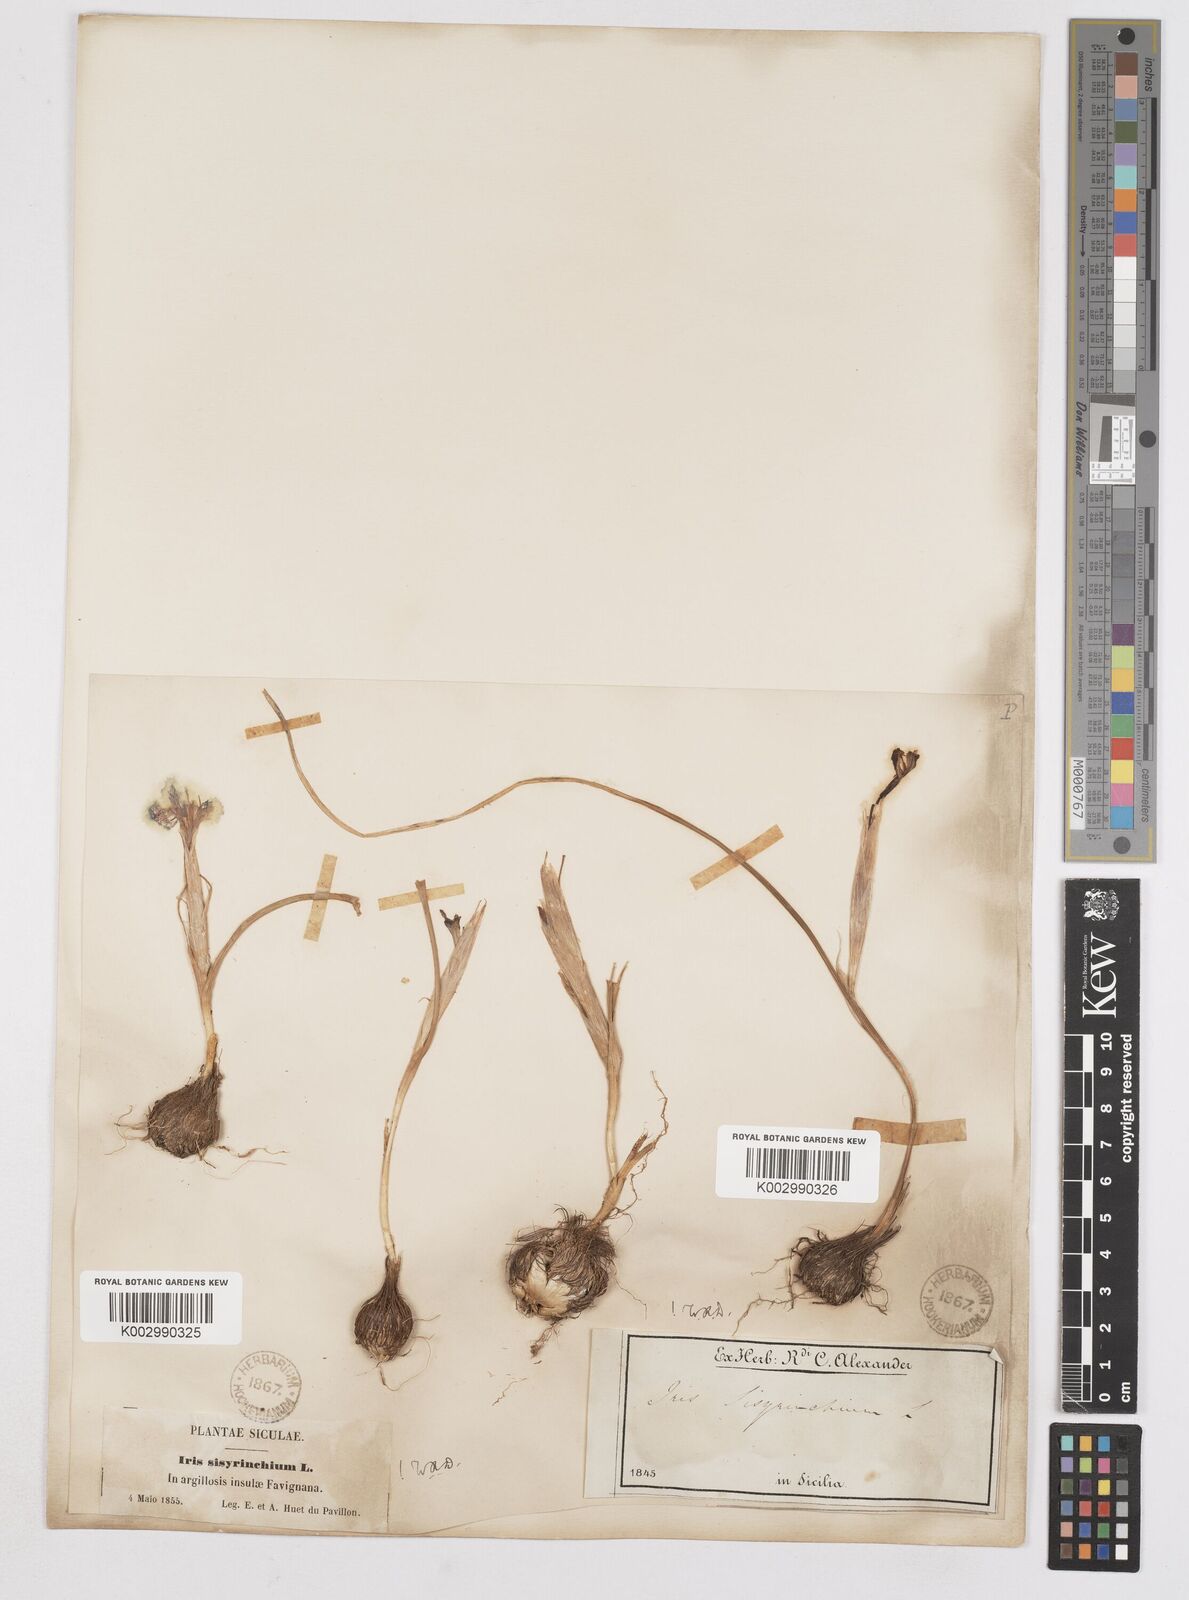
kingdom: Plantae
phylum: Tracheophyta
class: Liliopsida
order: Asparagales
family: Iridaceae
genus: Moraea
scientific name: Moraea sisyrinchium
